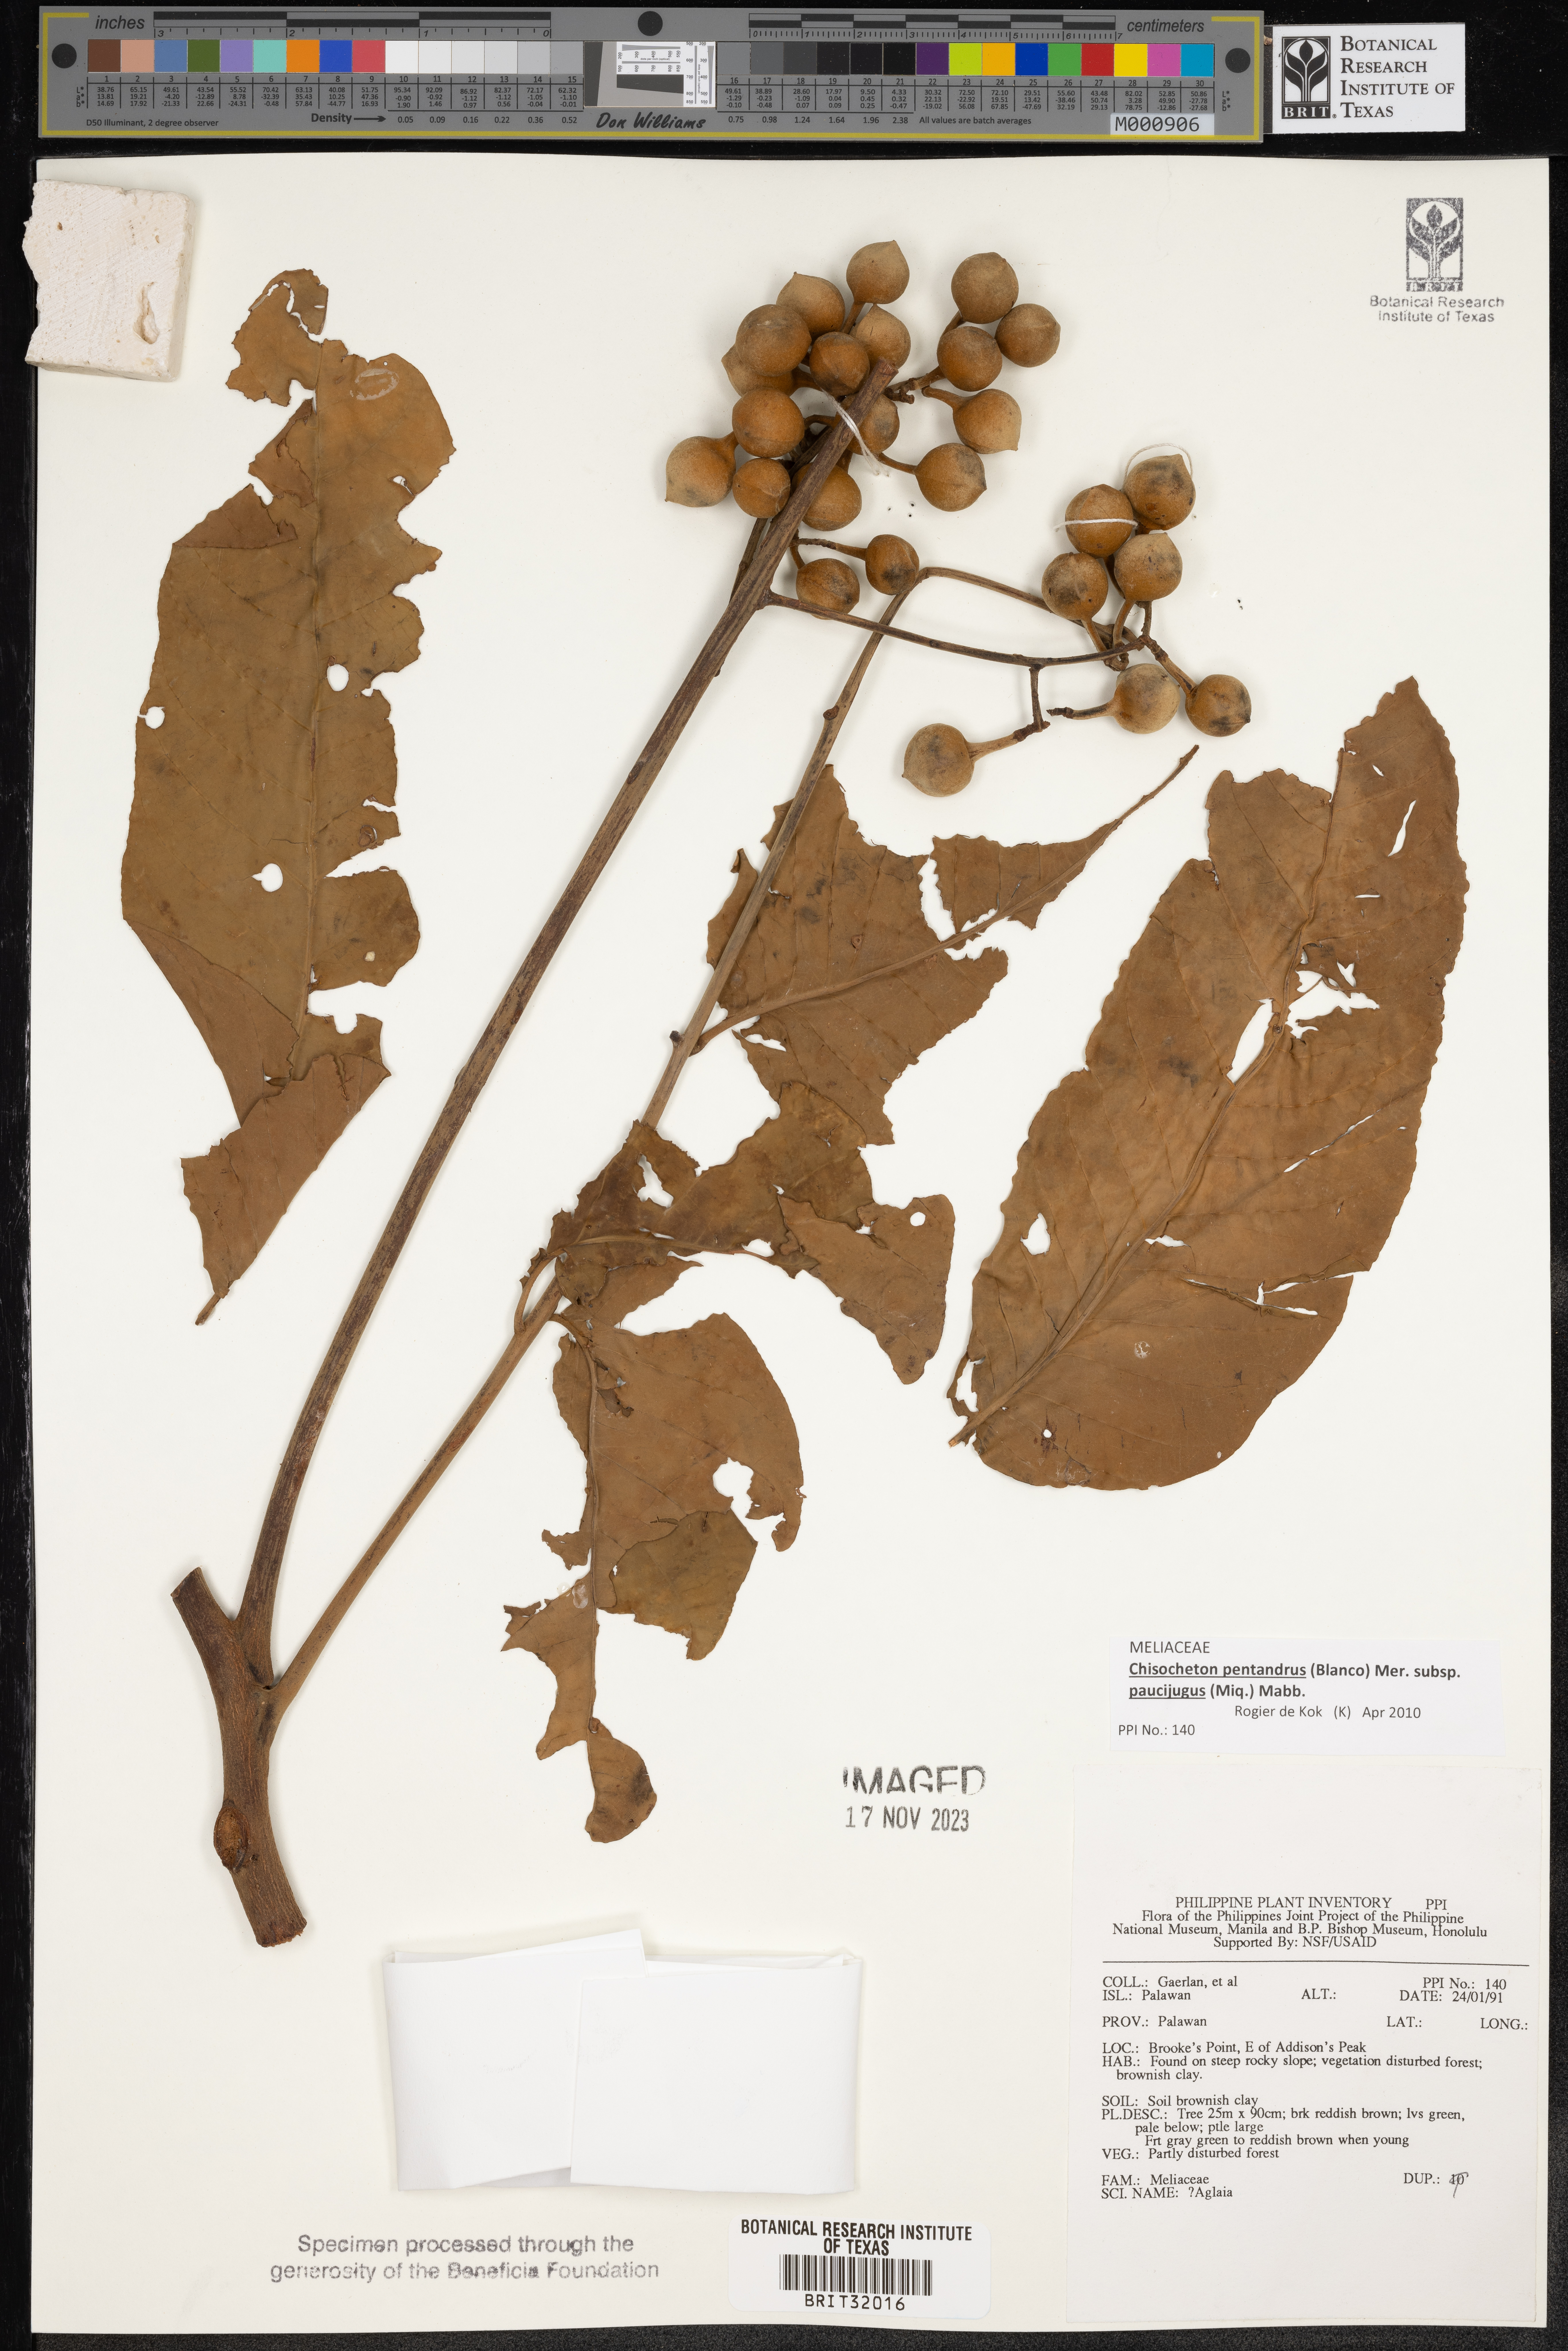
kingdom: Plantae
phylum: Tracheophyta
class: Magnoliopsida
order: Sapindales
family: Meliaceae
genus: Aglaia
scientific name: Aglaia
